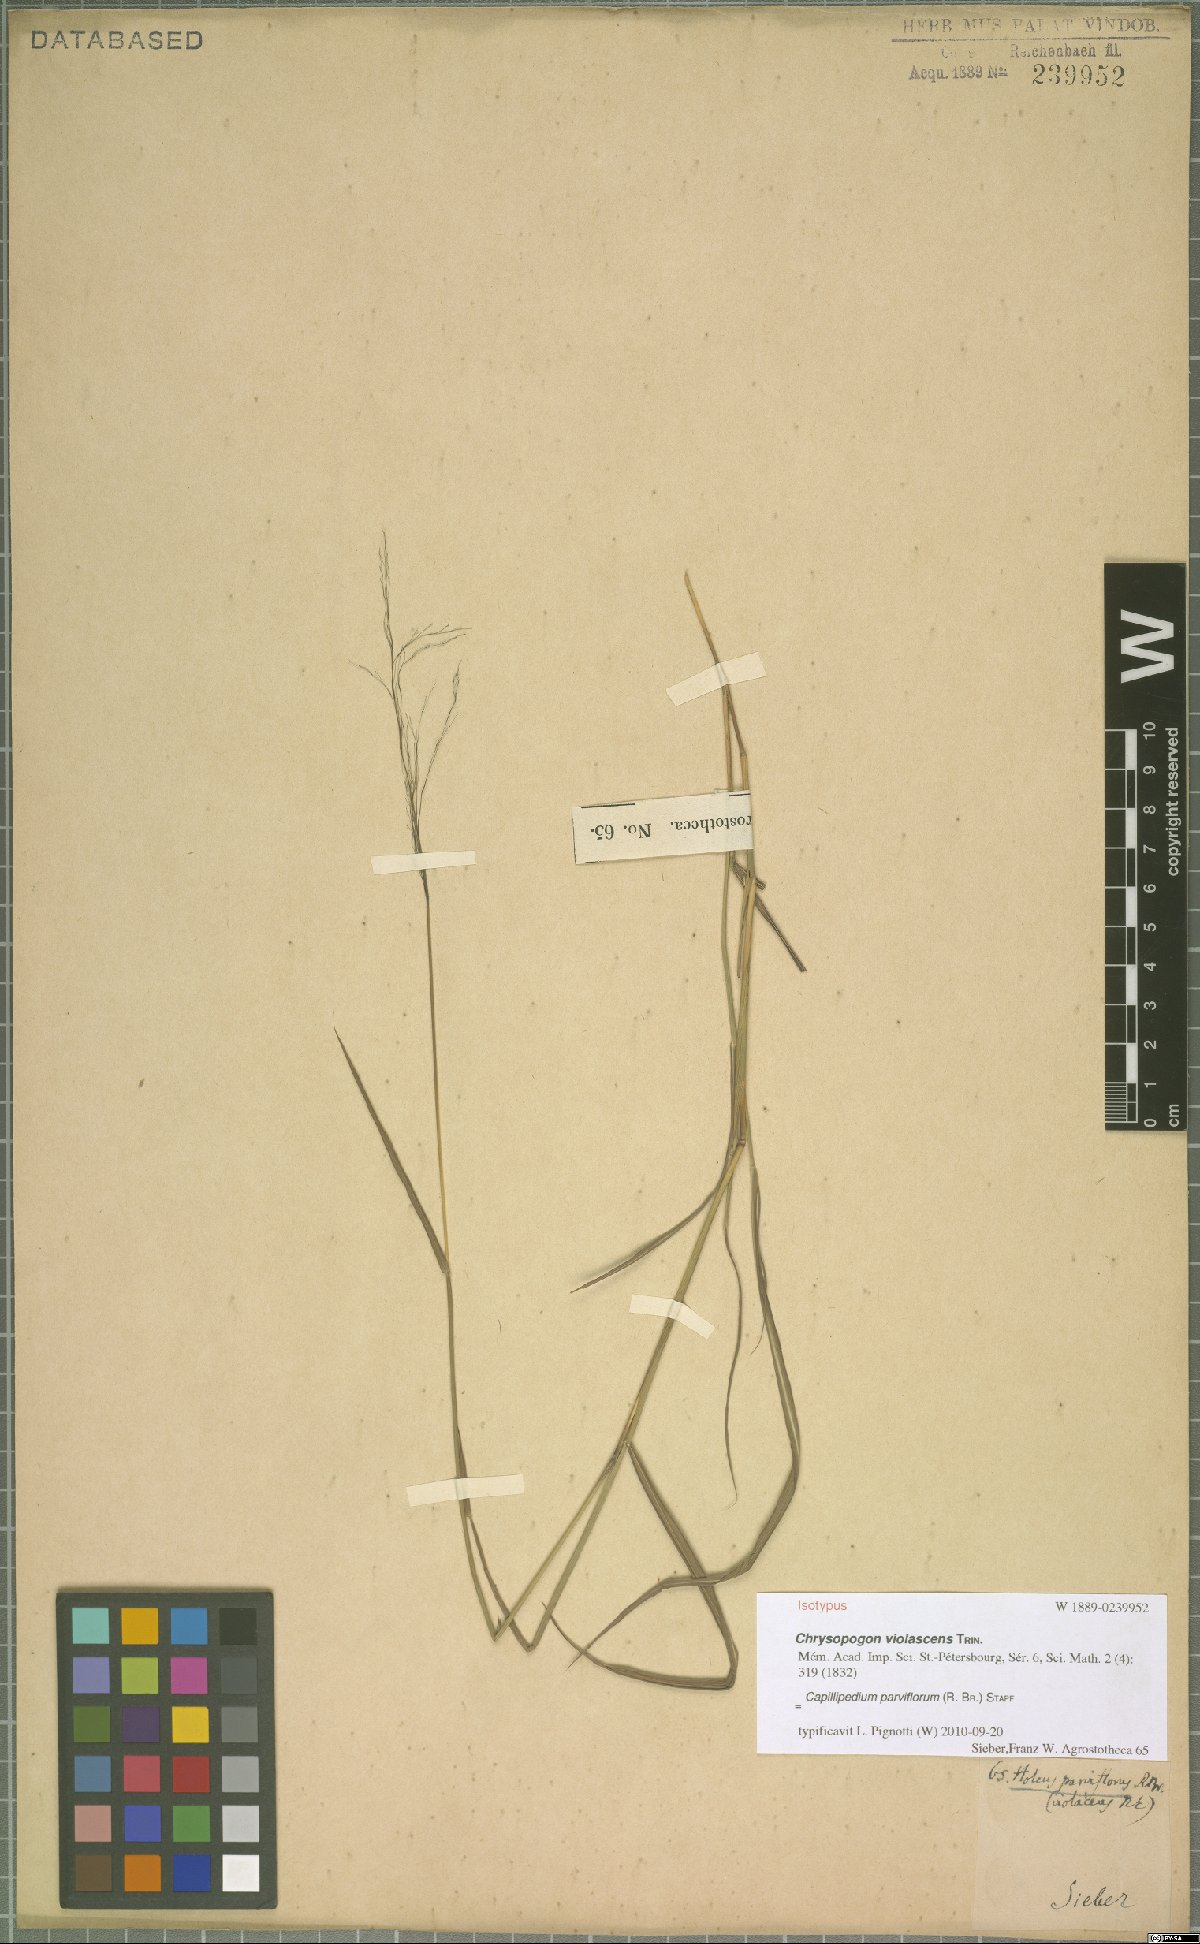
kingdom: Plantae
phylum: Tracheophyta
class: Liliopsida
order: Poales
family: Poaceae
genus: Capillipedium
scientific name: Capillipedium parviflorum
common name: Golden-beard
